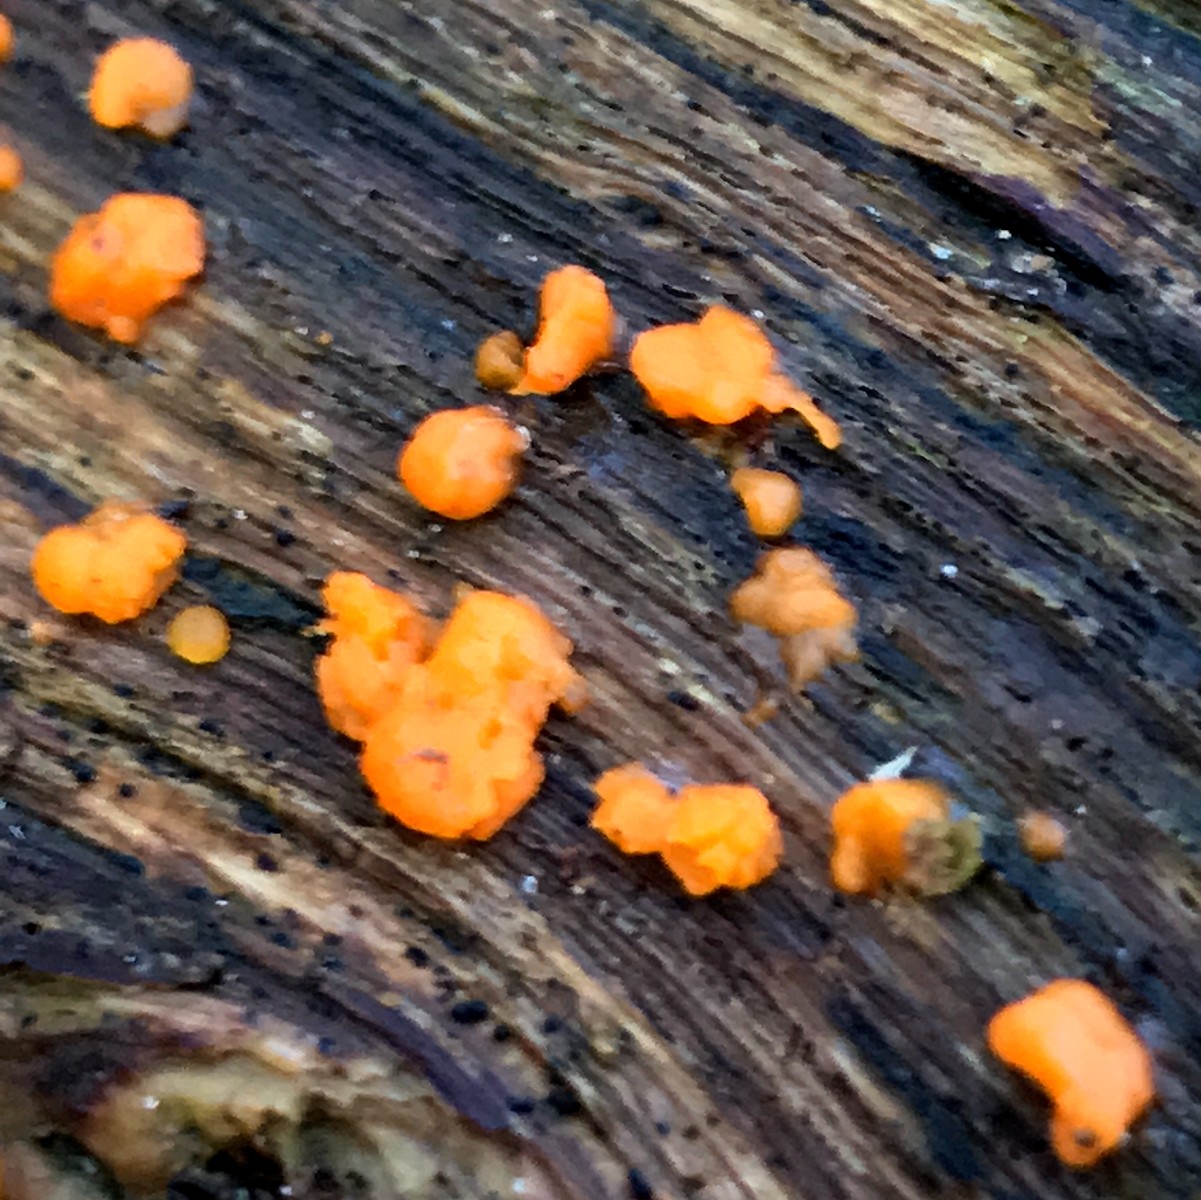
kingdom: Fungi
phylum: Basidiomycota
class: Dacrymycetes
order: Dacrymycetales
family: Dacrymycetaceae
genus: Dacrymyces
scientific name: Dacrymyces stillatus
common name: almindelig tåresvamp
